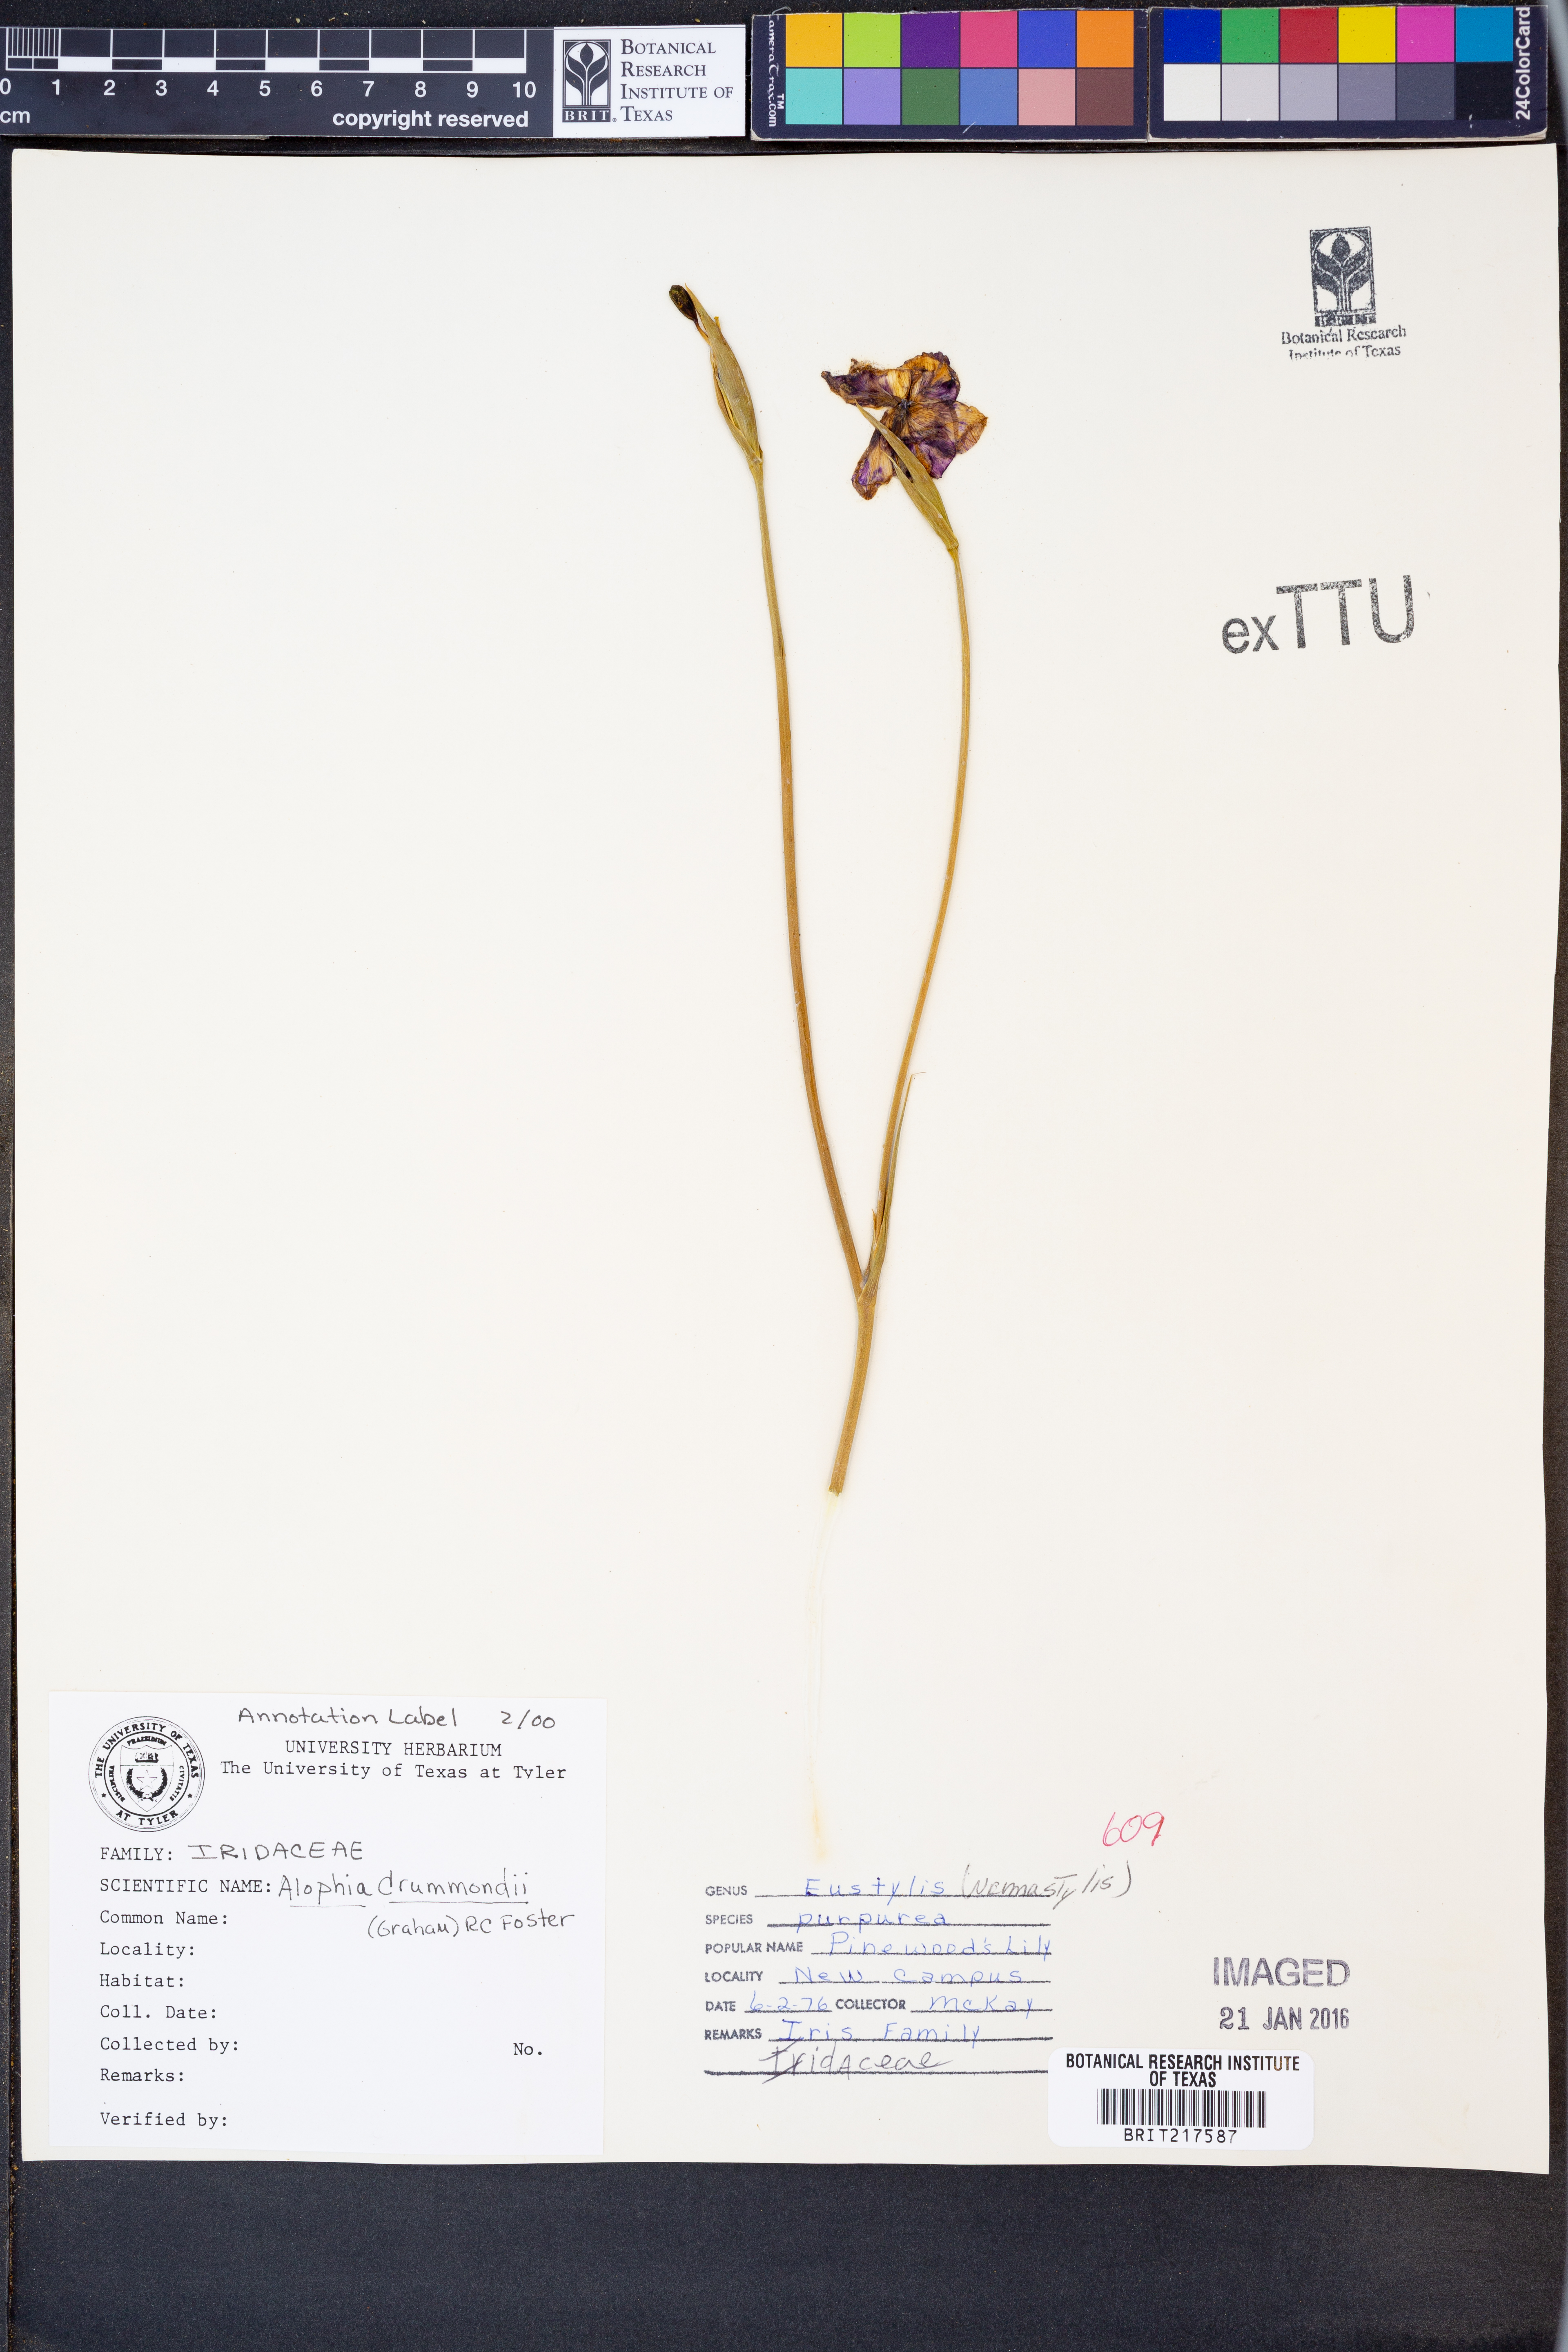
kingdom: Plantae
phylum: Tracheophyta
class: Liliopsida
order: Asparagales
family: Iridaceae
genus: Alophia
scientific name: Alophia drummondii
